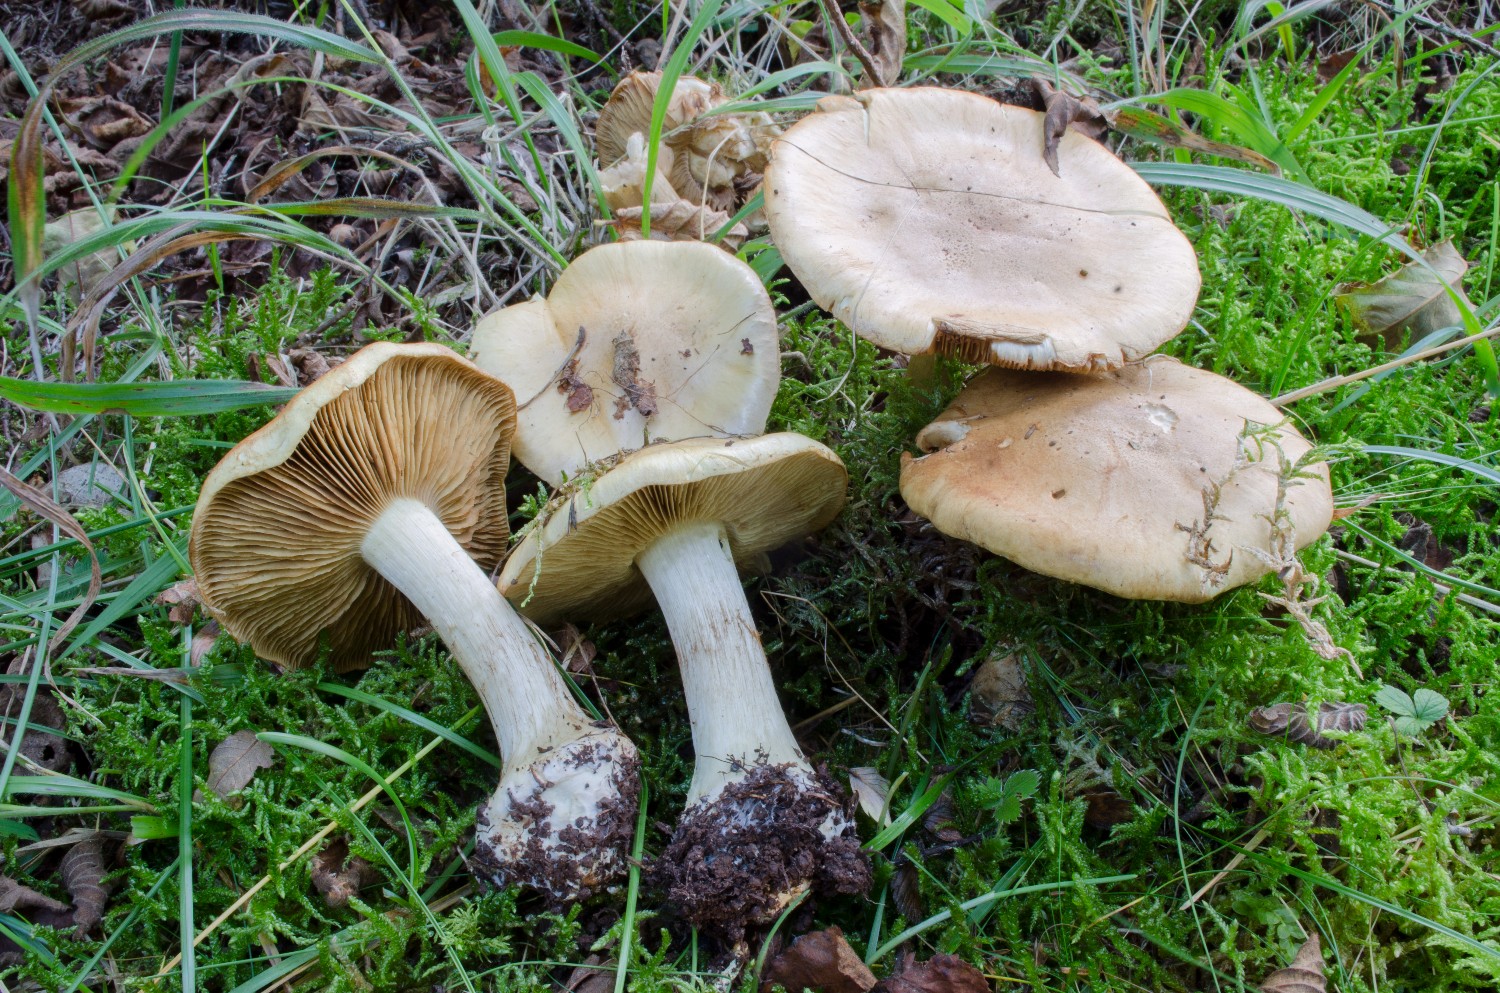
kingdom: Fungi
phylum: Basidiomycota
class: Agaricomycetes
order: Agaricales
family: Cortinariaceae
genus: Phlegmacium
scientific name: Phlegmacium xanthosuave
